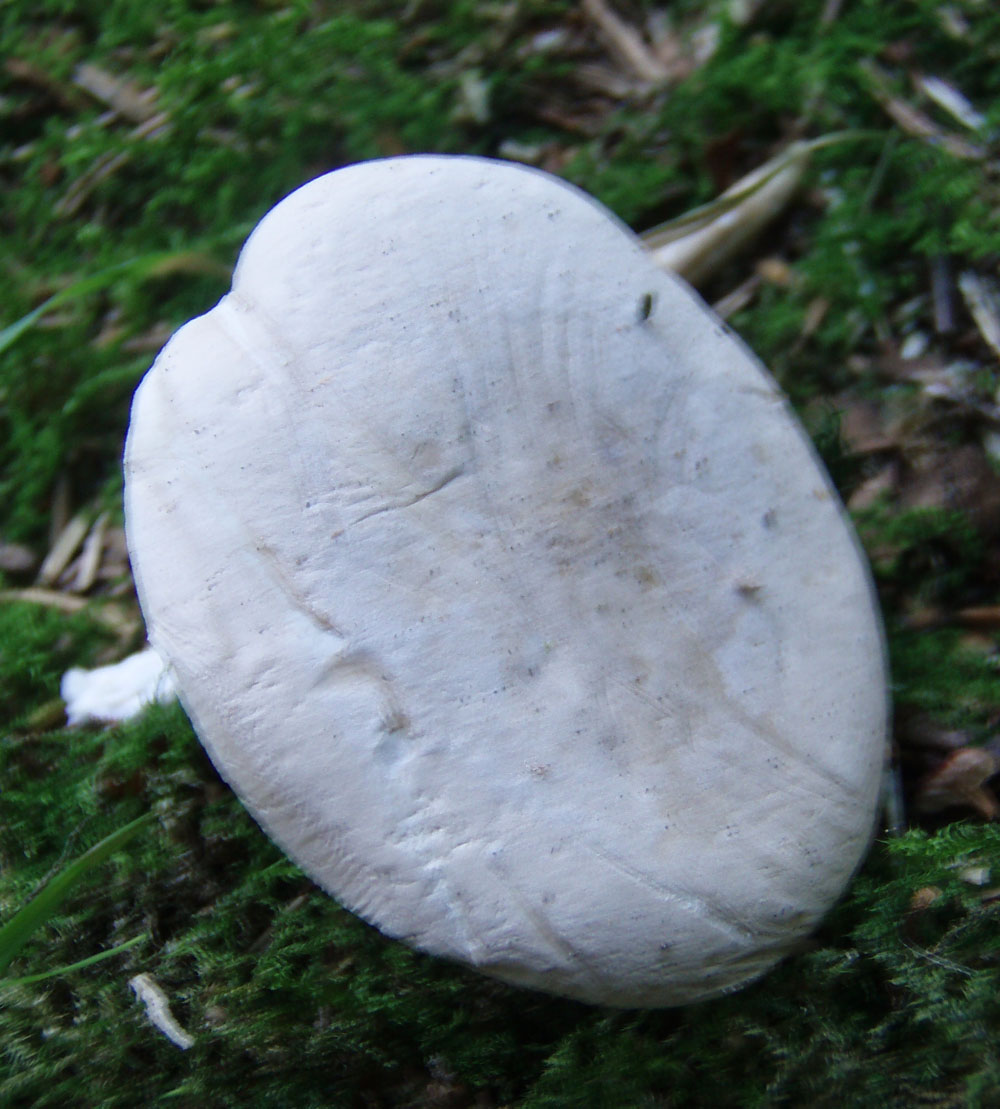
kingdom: Fungi
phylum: Basidiomycota
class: Agaricomycetes
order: Agaricales
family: Entolomataceae
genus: Clitopilus
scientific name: Clitopilus prunulus
